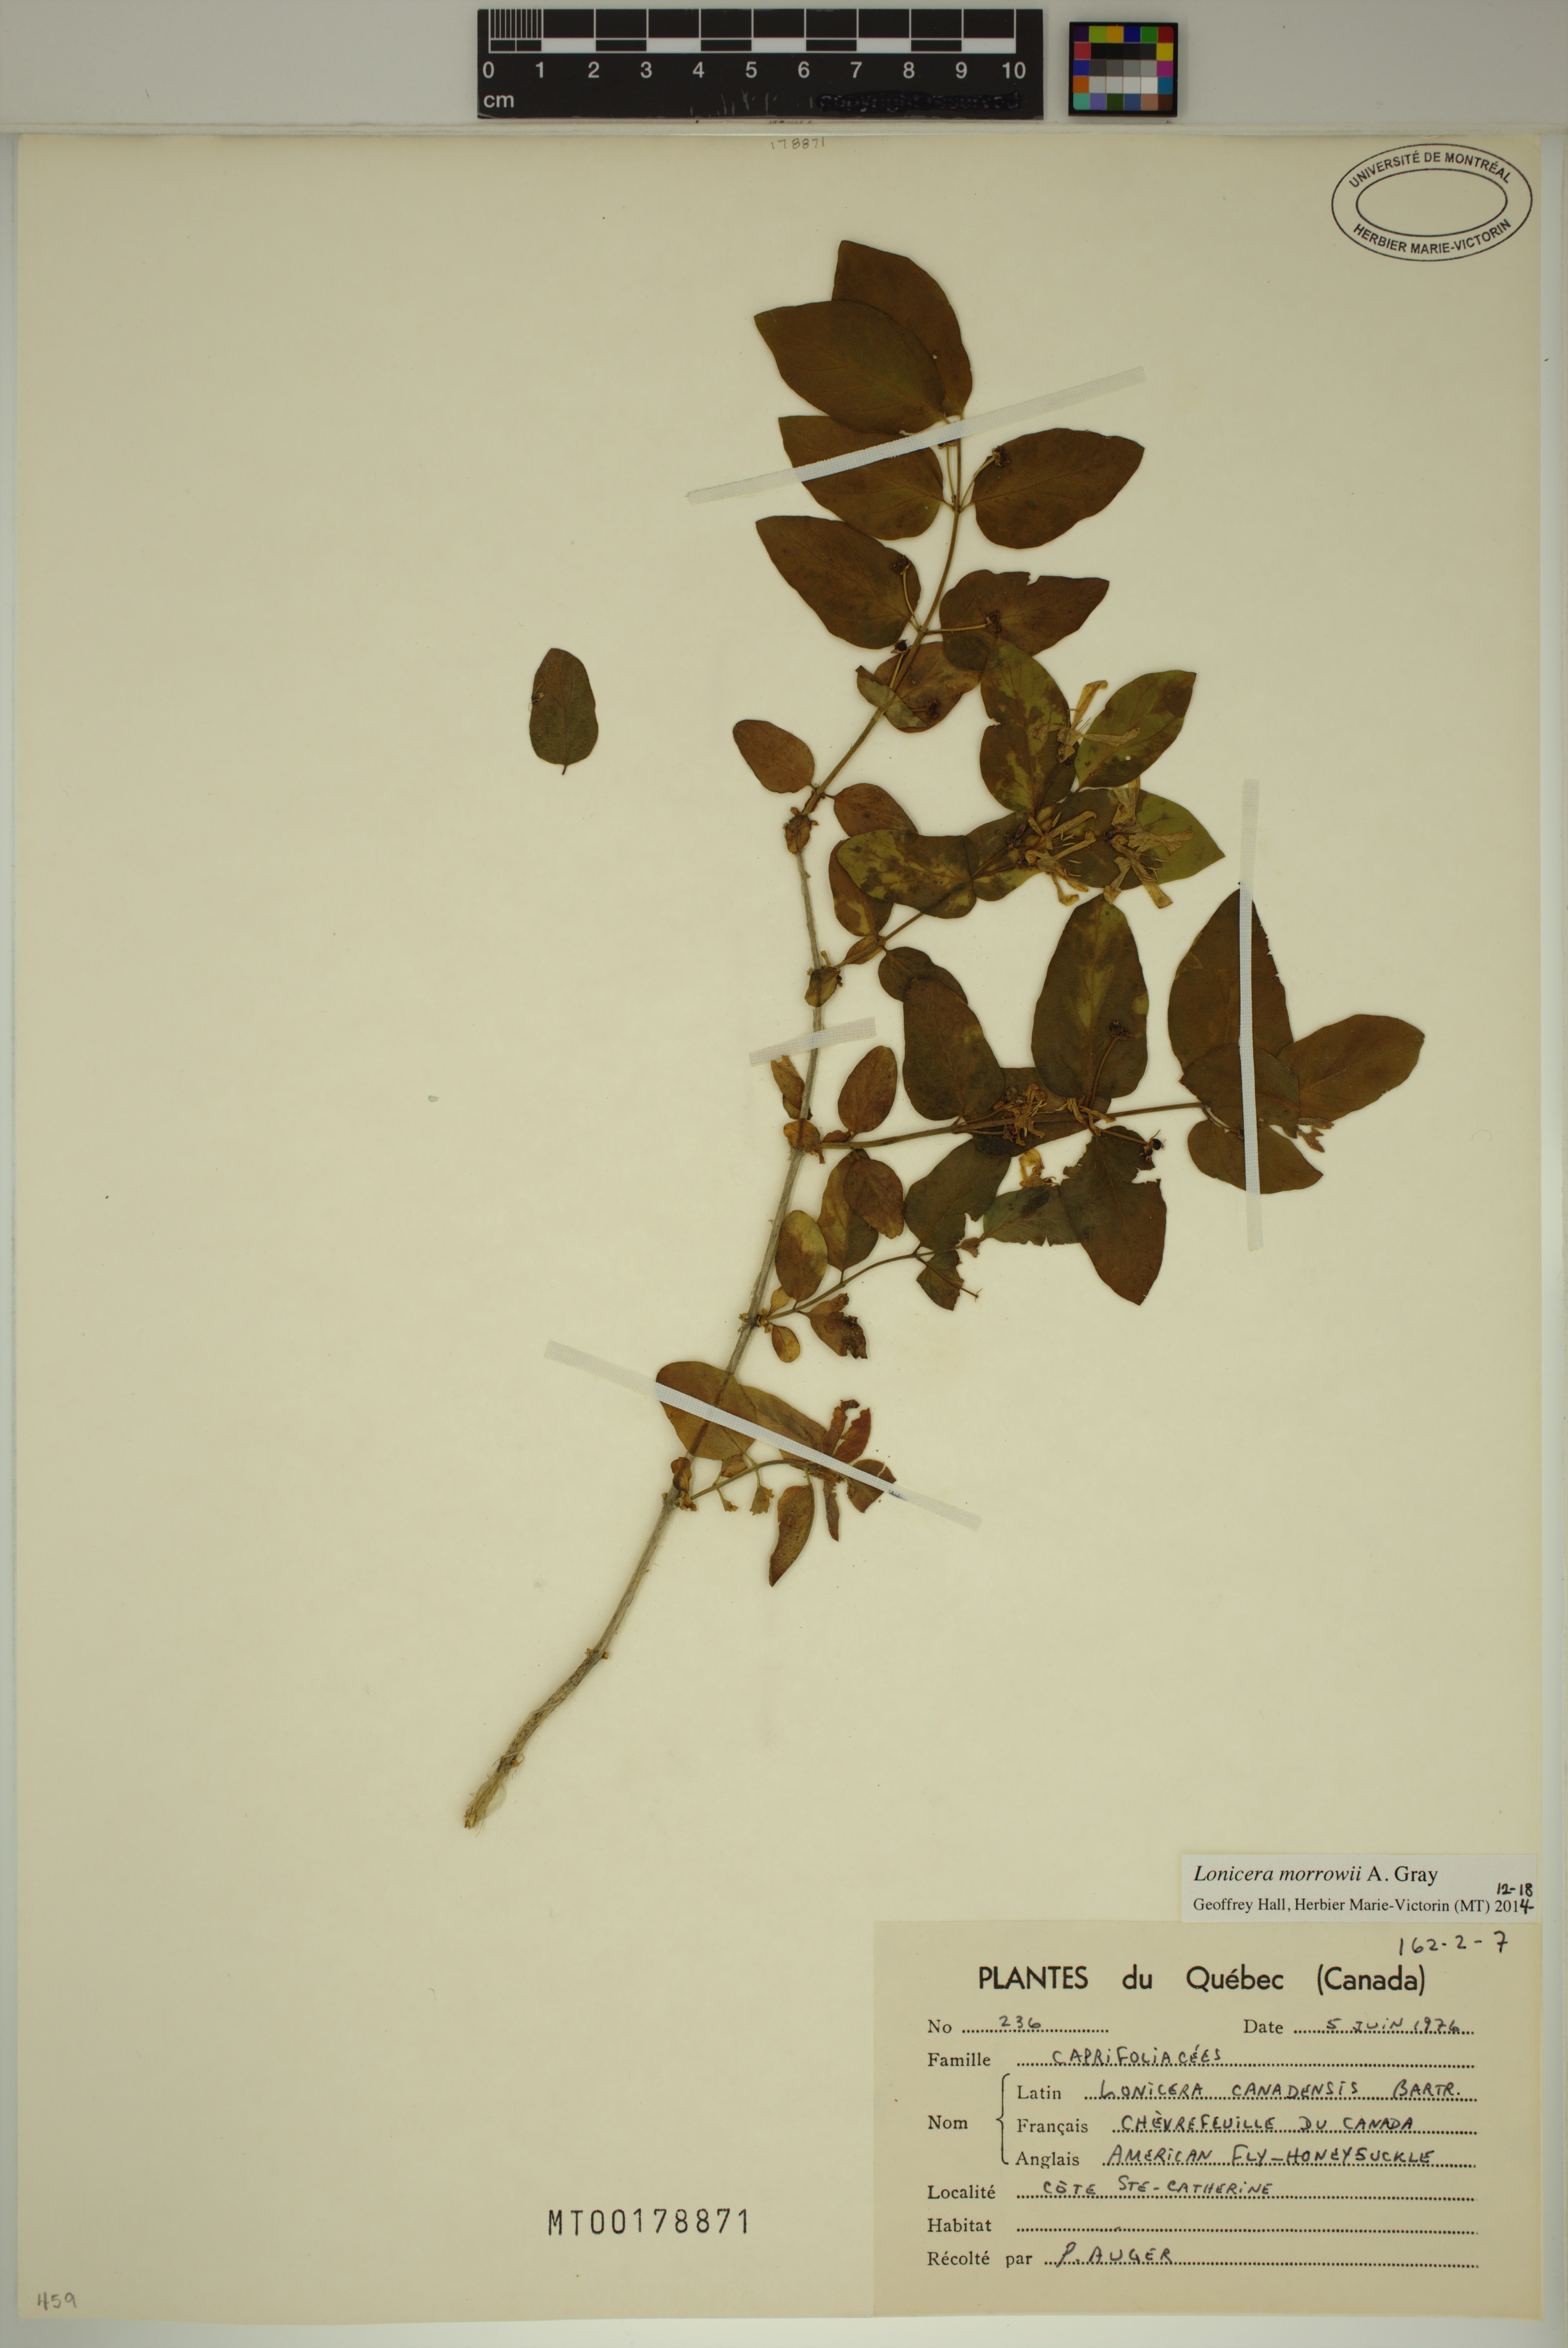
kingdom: Plantae
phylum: Tracheophyta
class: Magnoliopsida
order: Dipsacales
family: Caprifoliaceae
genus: Lonicera
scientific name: Lonicera morrowii
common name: Morrow's honeysuckle
